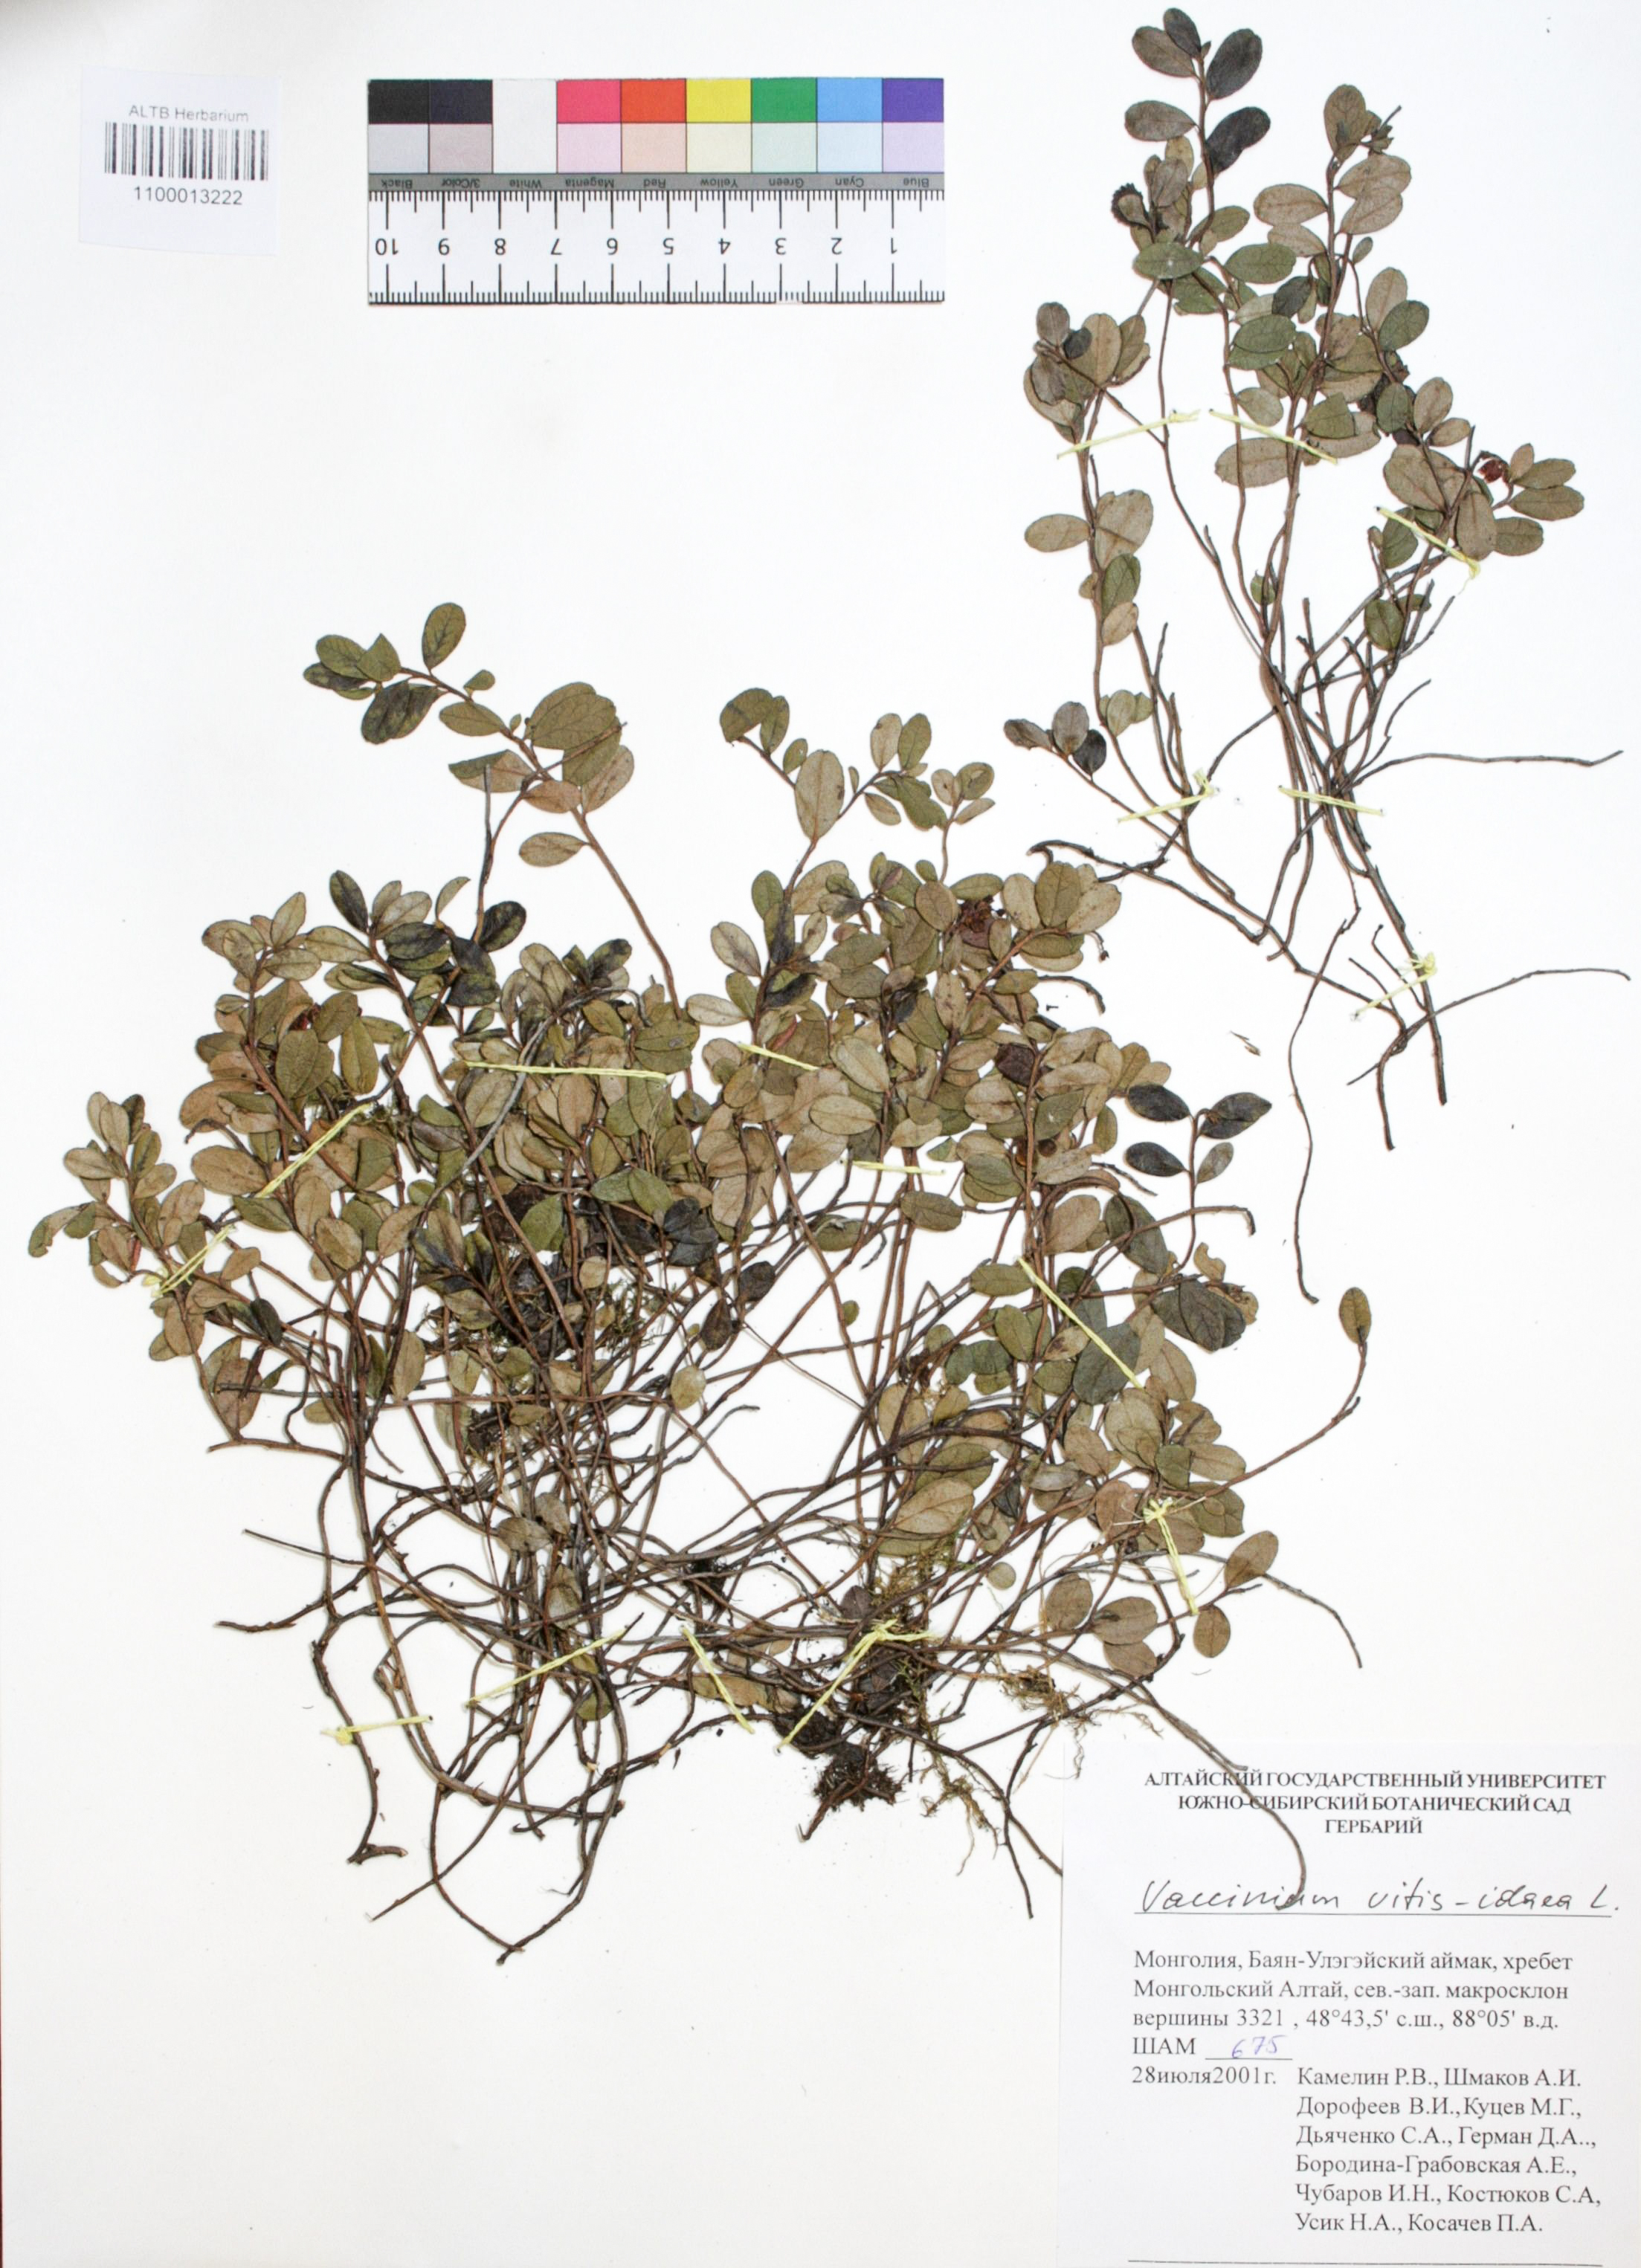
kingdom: Plantae
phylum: Tracheophyta
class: Magnoliopsida
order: Ericales
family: Ericaceae
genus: Vaccinium
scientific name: Vaccinium vitis-idaea
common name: Cowberry
